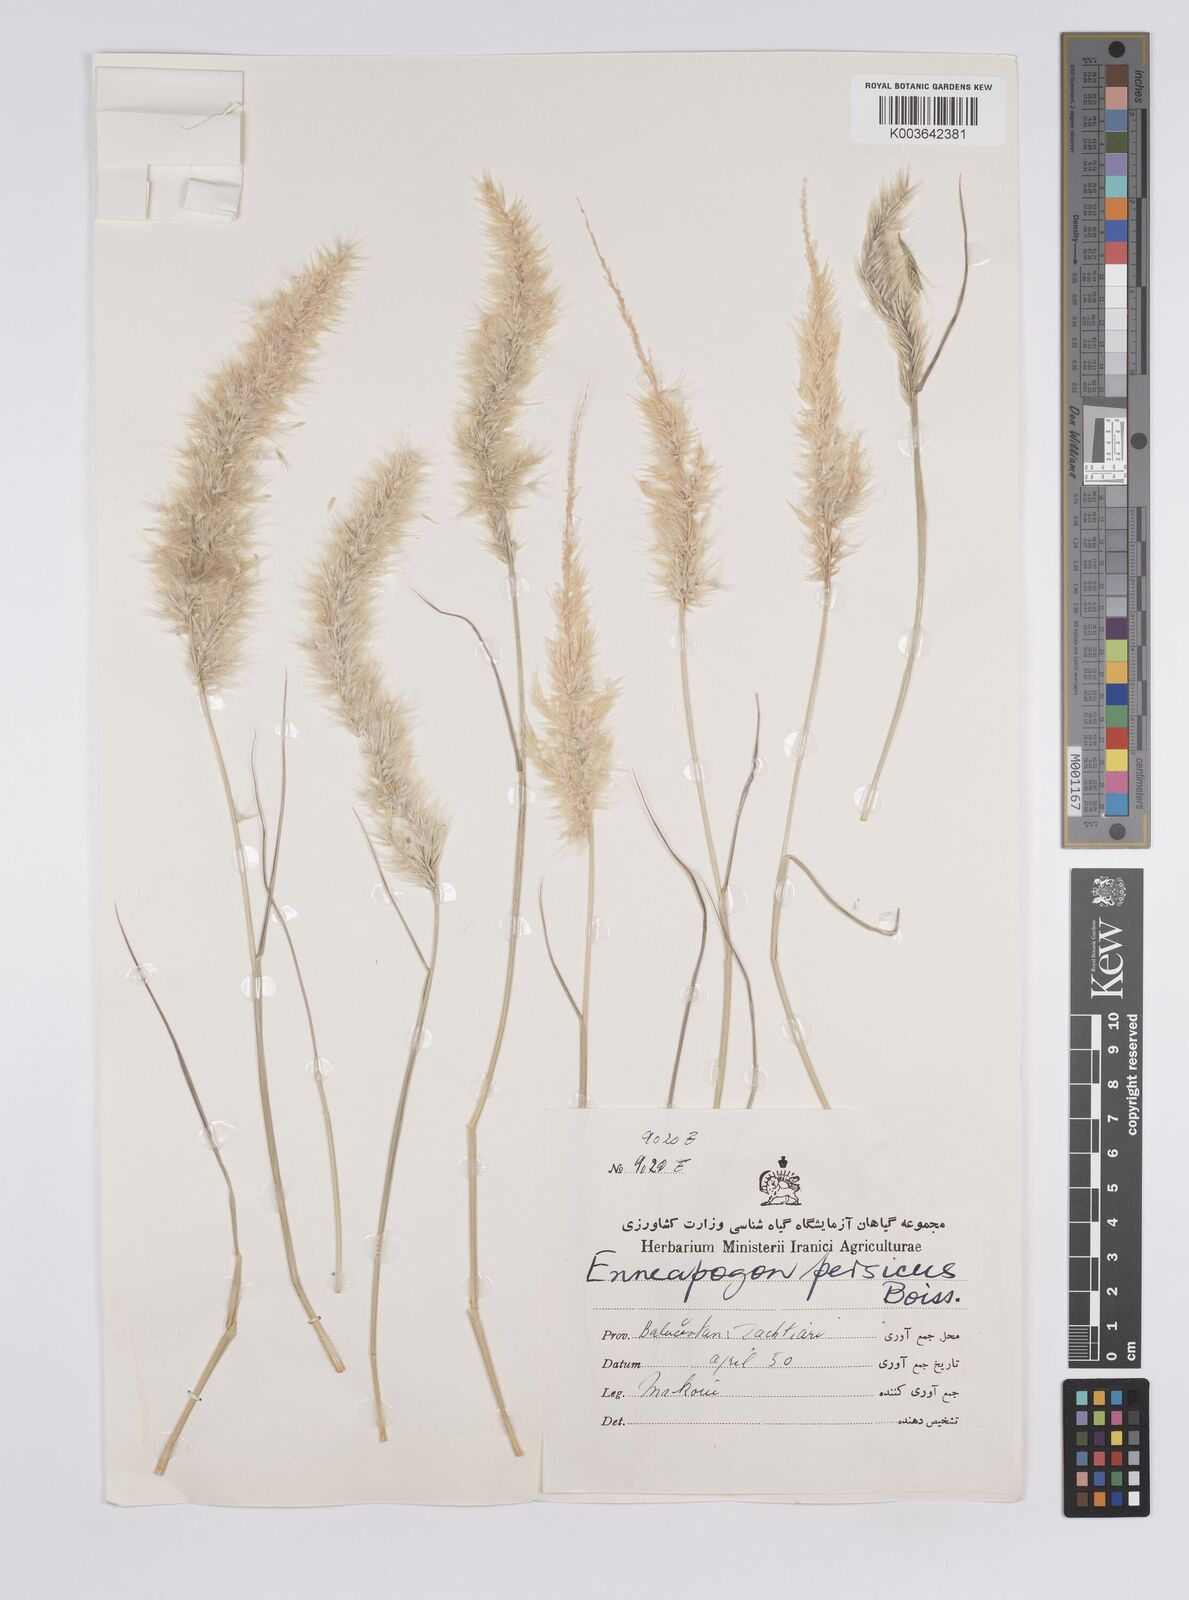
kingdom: Plantae
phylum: Tracheophyta
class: Liliopsida
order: Poales
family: Poaceae
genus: Enneapogon
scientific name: Enneapogon persicus
